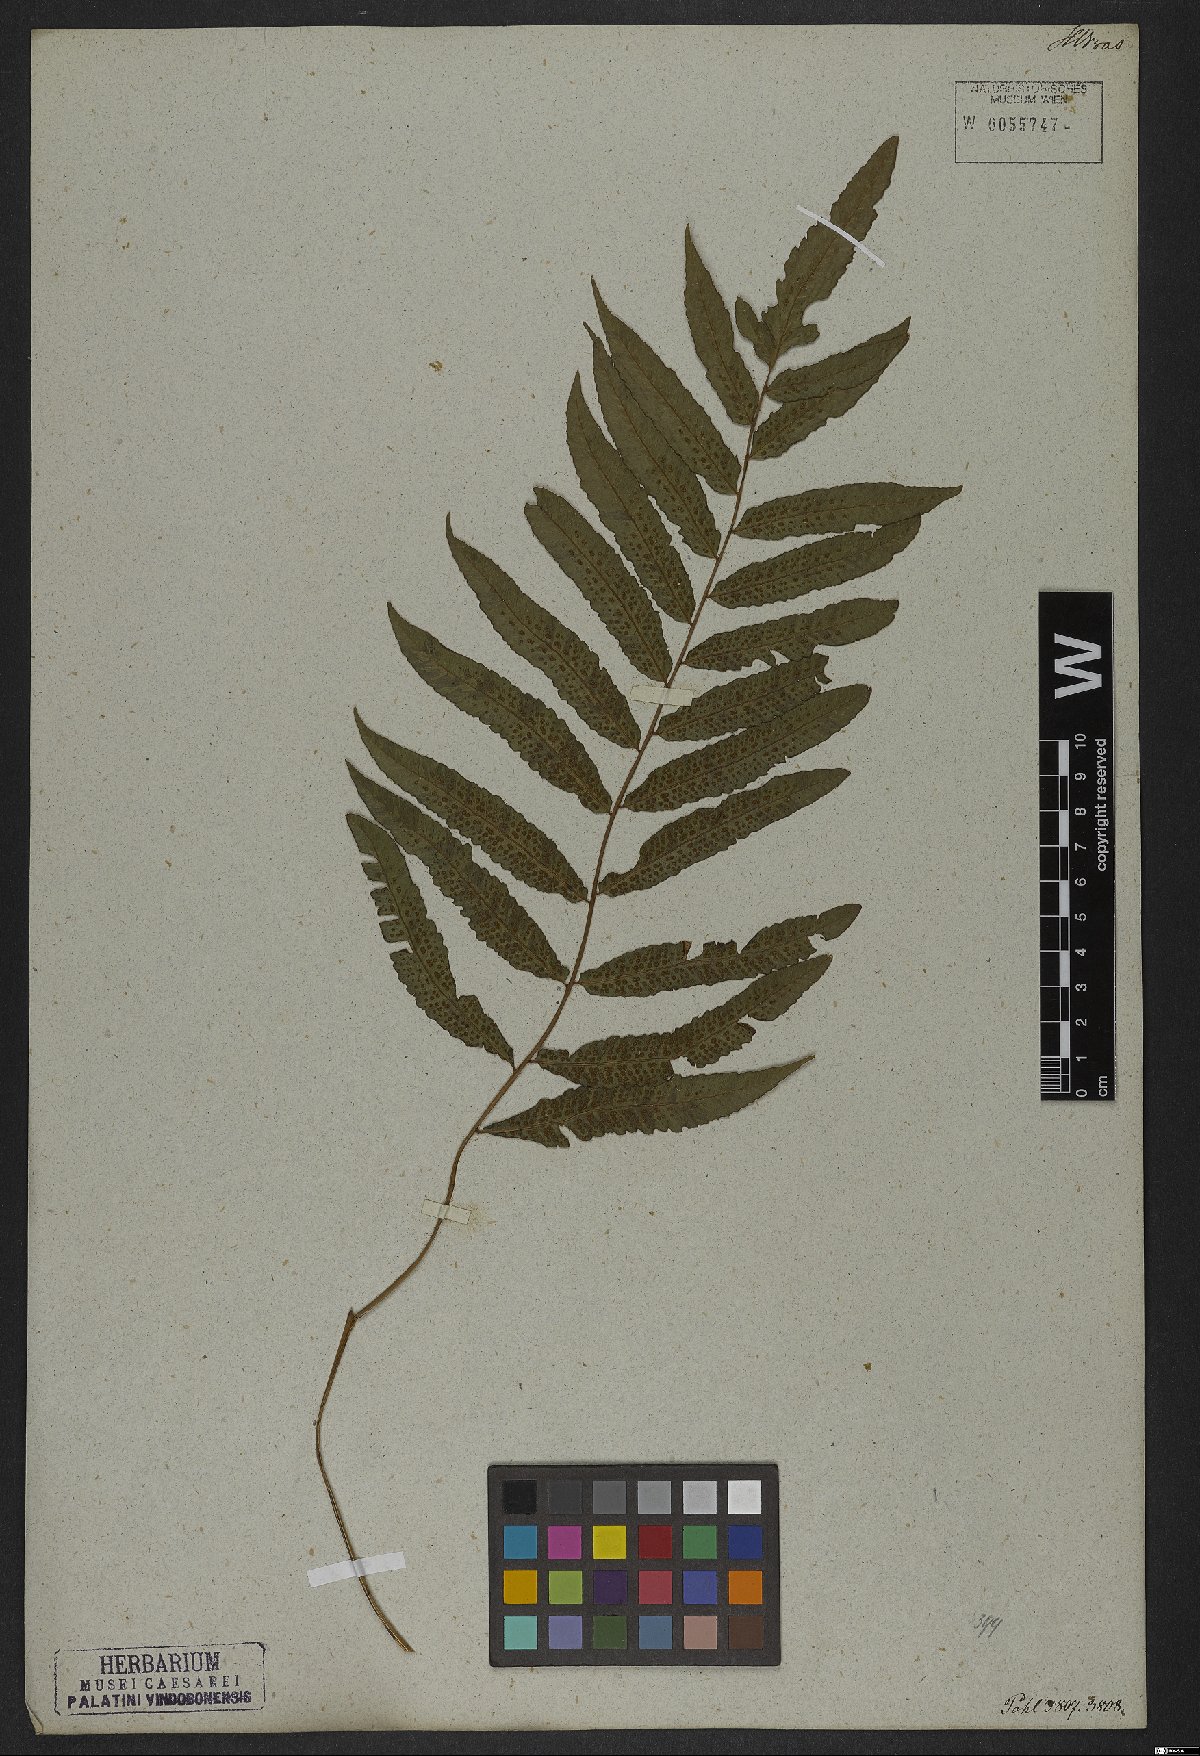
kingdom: Plantae
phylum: Tracheophyta
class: Polypodiopsida
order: Polypodiales
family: Thelypteridaceae
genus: Goniopteris
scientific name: Goniopteris vivipara
